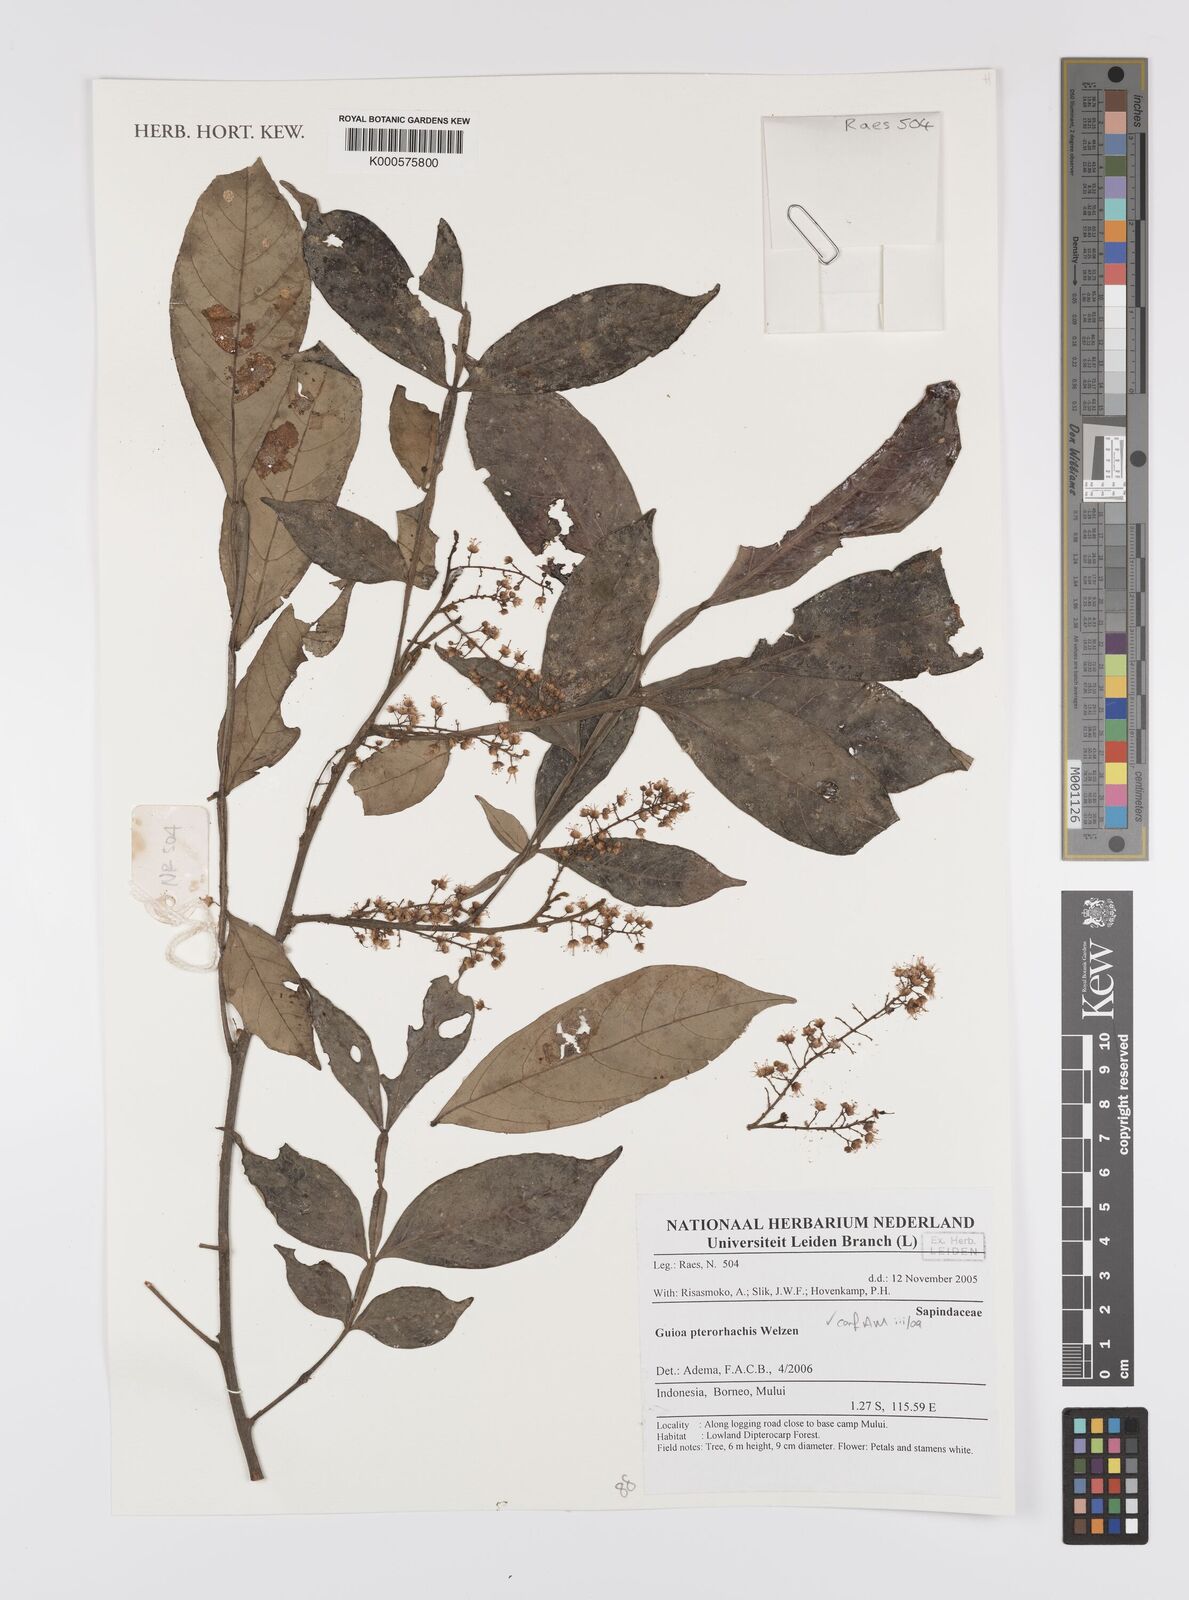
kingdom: Plantae
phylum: Tracheophyta
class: Magnoliopsida
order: Sapindales
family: Sapindaceae
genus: Guioa
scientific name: Guioa pterorhachis
